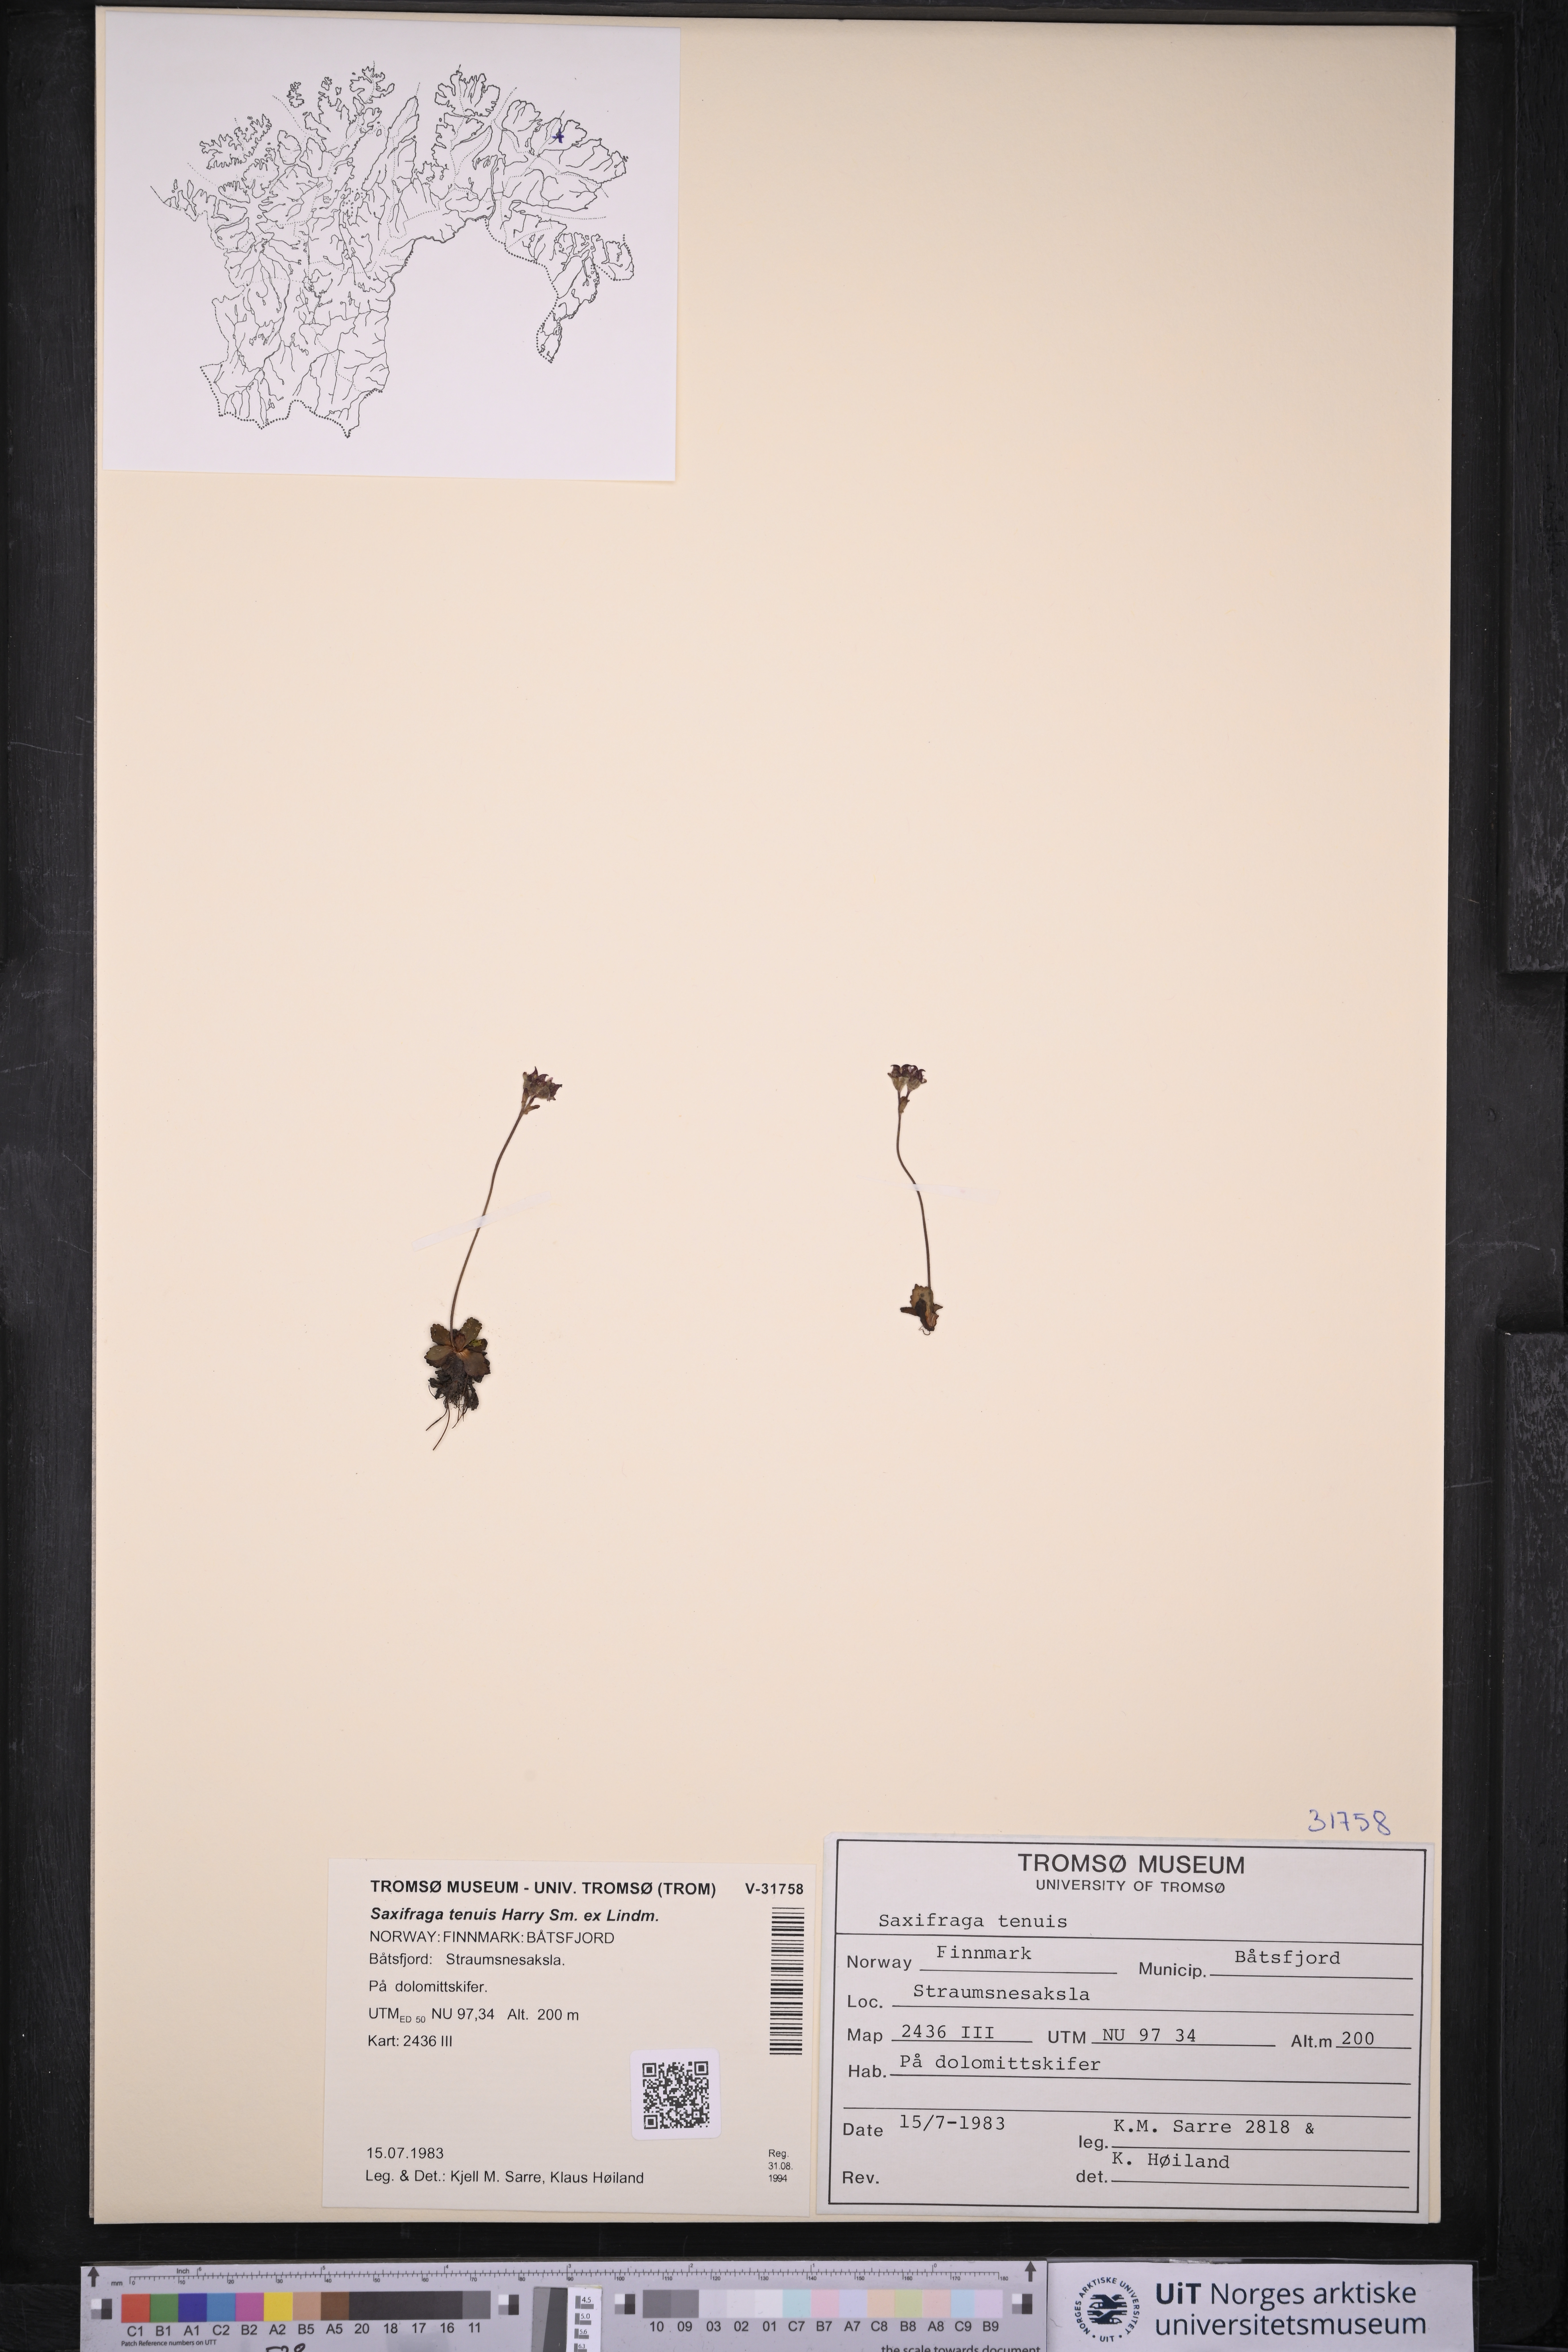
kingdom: Plantae
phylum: Tracheophyta
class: Magnoliopsida
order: Saxifragales
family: Saxifragaceae
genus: Micranthes
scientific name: Micranthes tenuis
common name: Ottertail pass saxifrage
